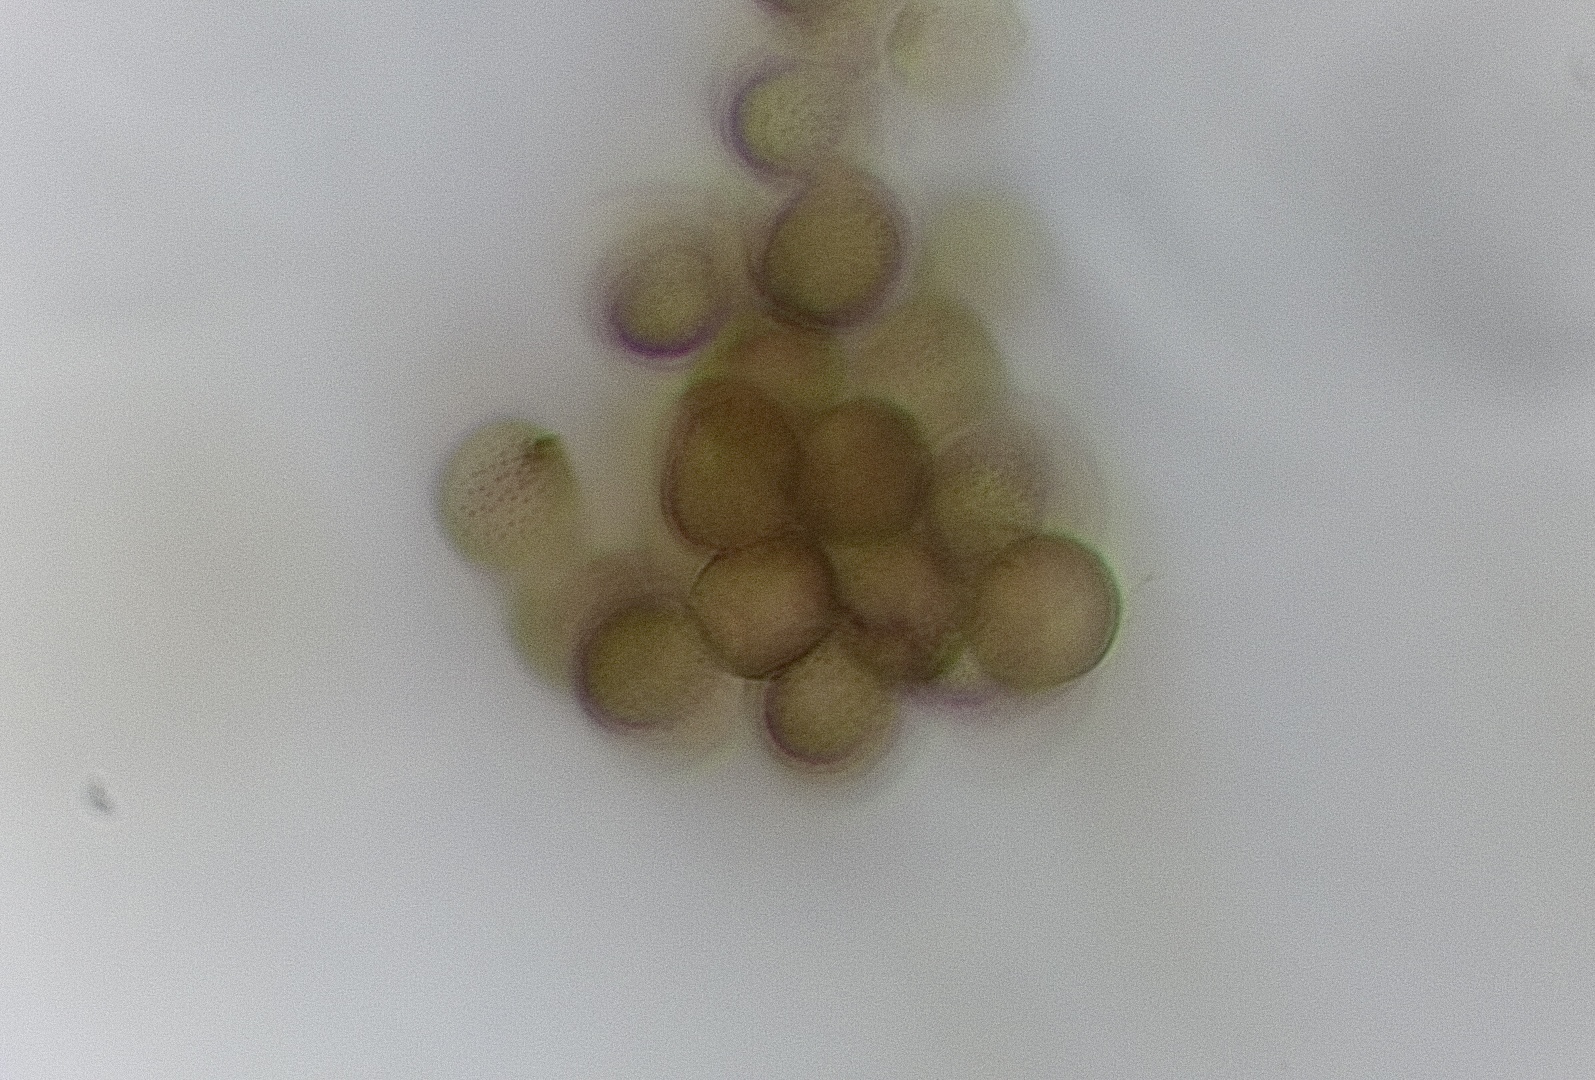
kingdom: Protozoa
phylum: Mycetozoa
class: Myxomycetes
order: Stemonitidales
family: Stemonitidaceae
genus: Stemonitopsis
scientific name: Stemonitopsis
